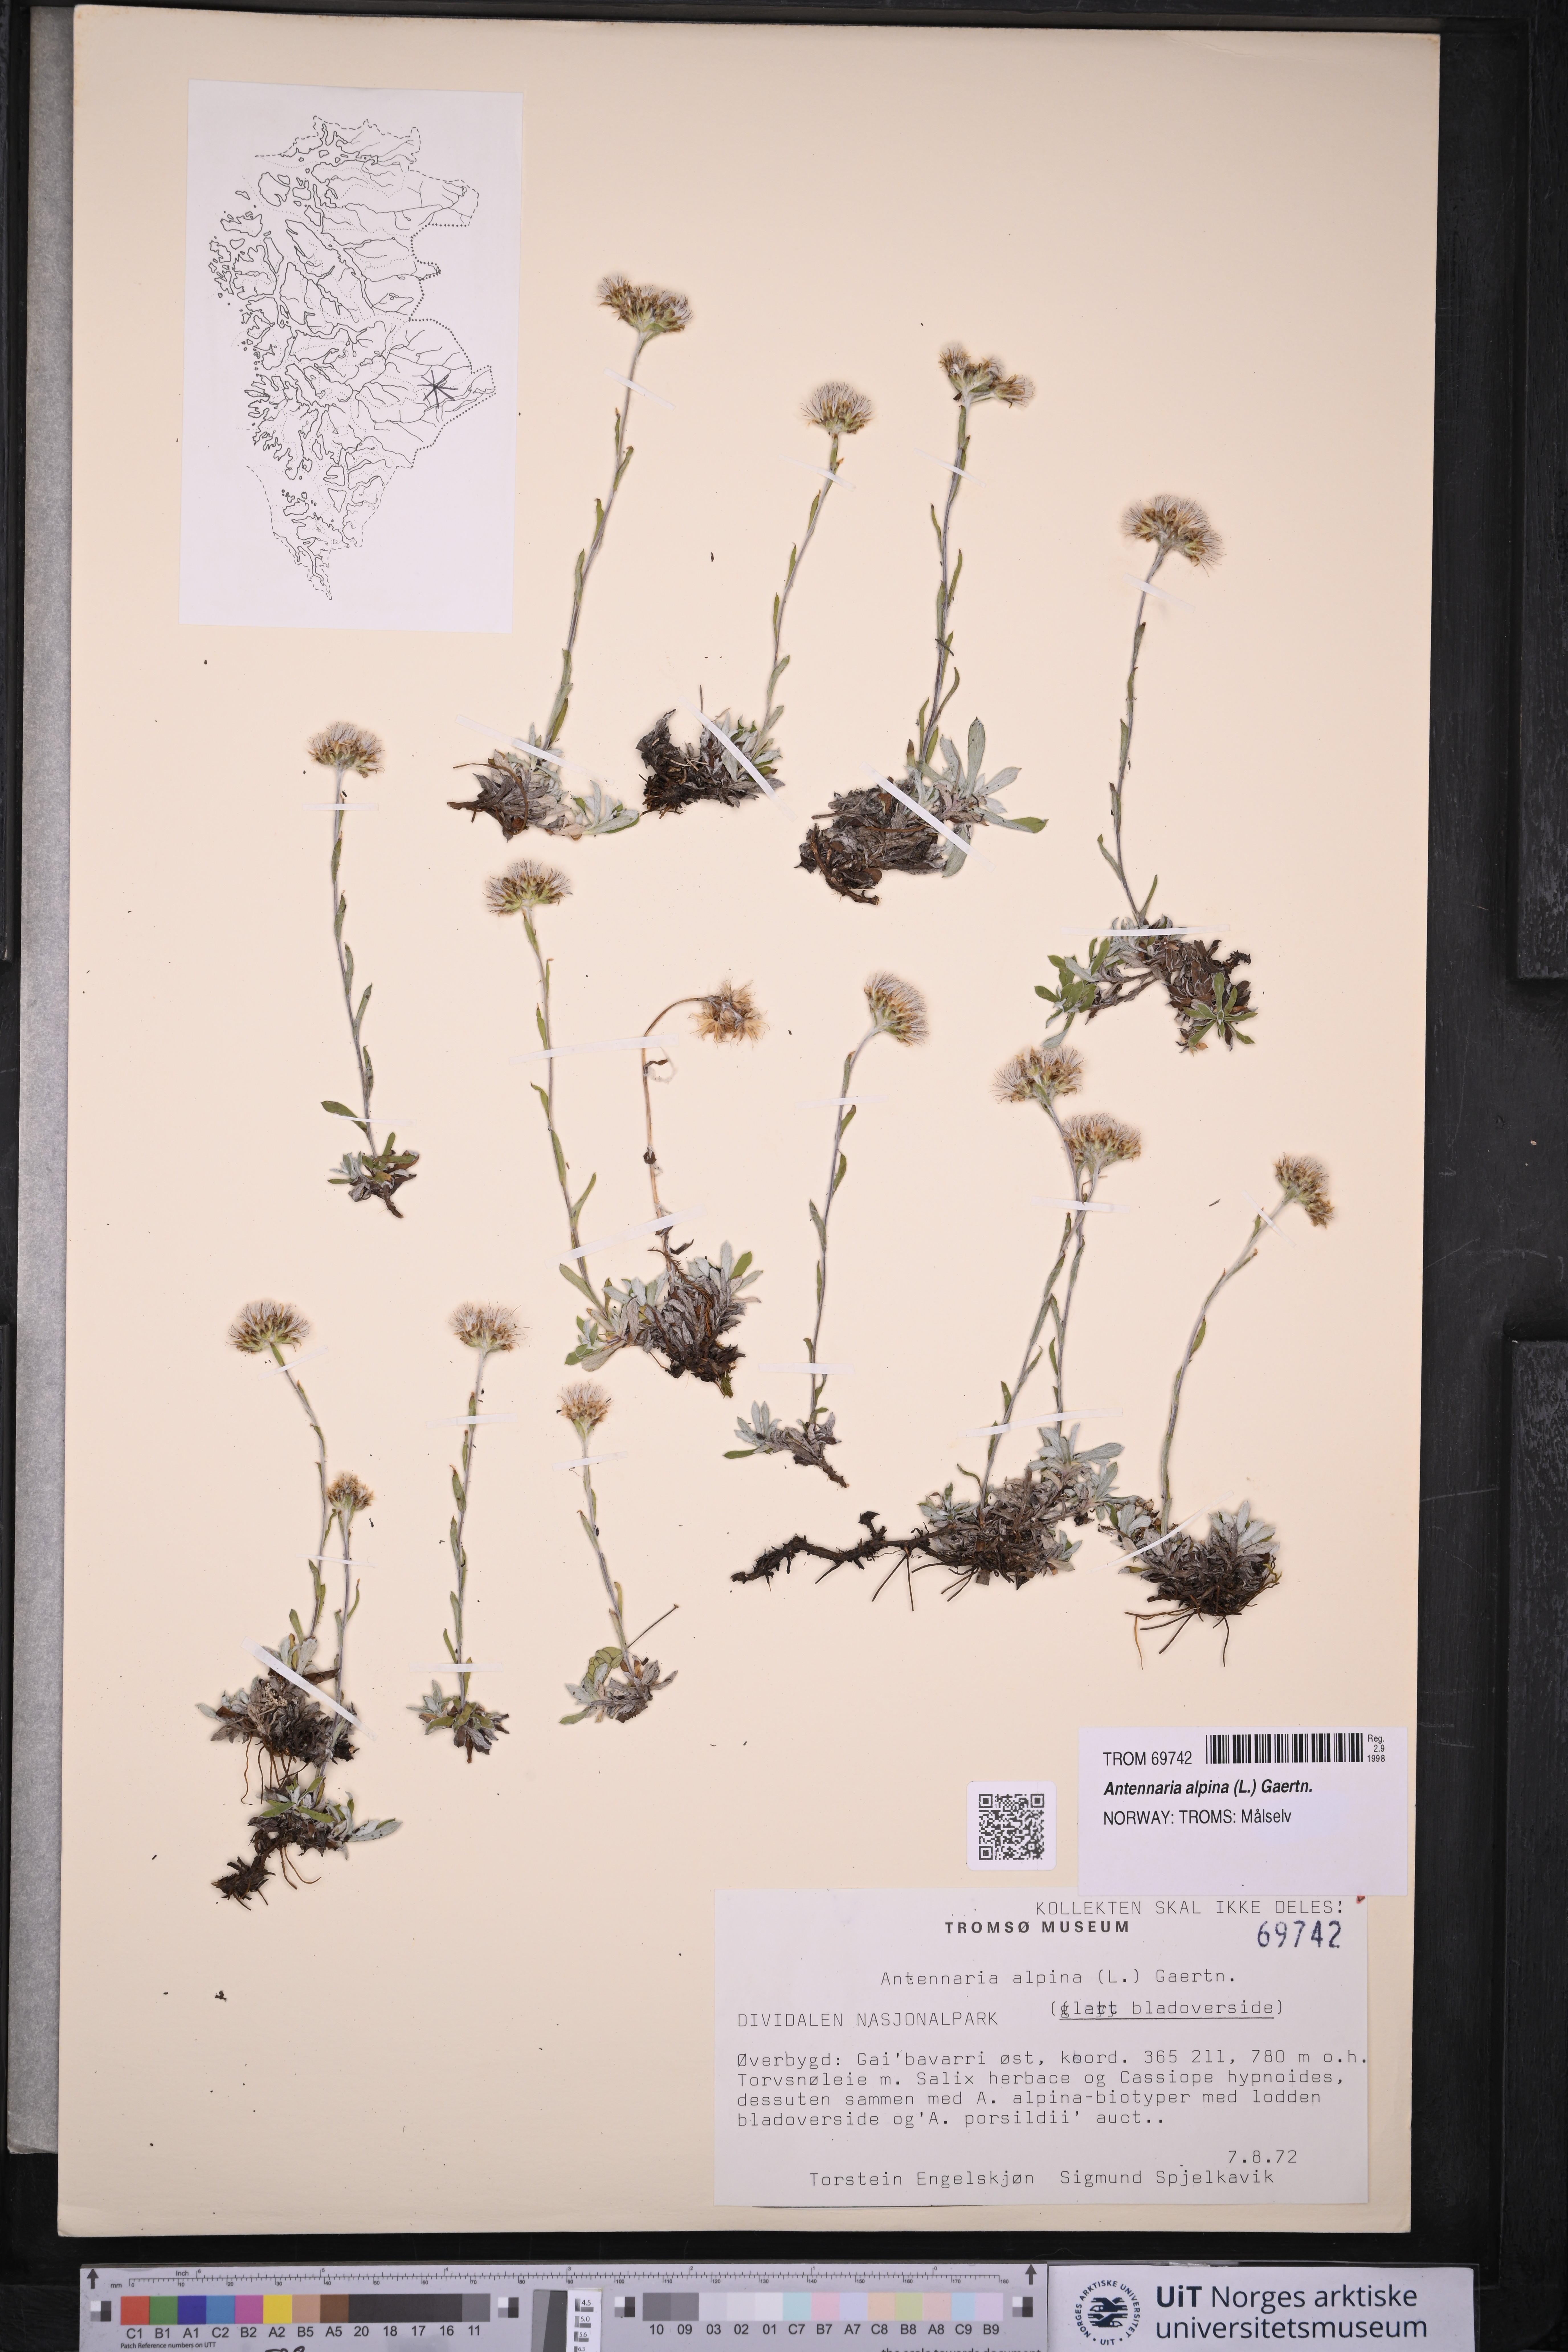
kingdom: Plantae
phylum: Tracheophyta
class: Magnoliopsida
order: Asterales
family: Asteraceae
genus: Antennaria
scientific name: Antennaria alpina
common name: Alpine pussytoes
